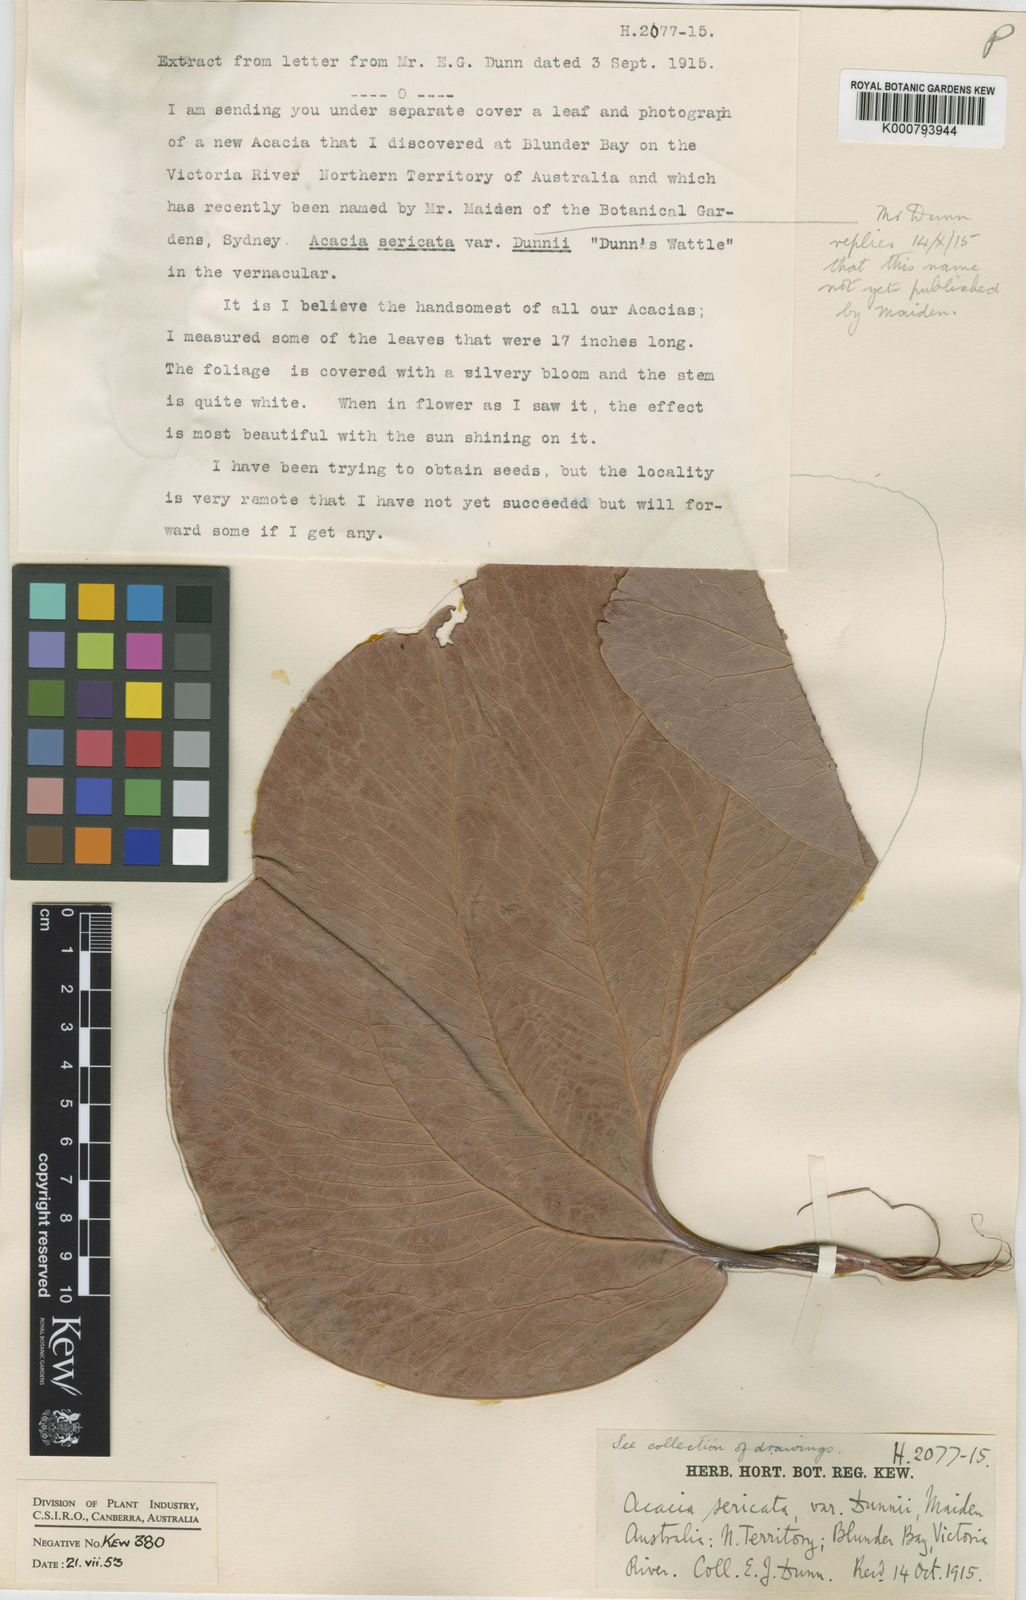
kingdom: Plantae
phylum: Tracheophyta
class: Magnoliopsida
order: Fabales
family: Fabaceae
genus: Acacia
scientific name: Acacia dunnii
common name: Elephant's-ear wattle
